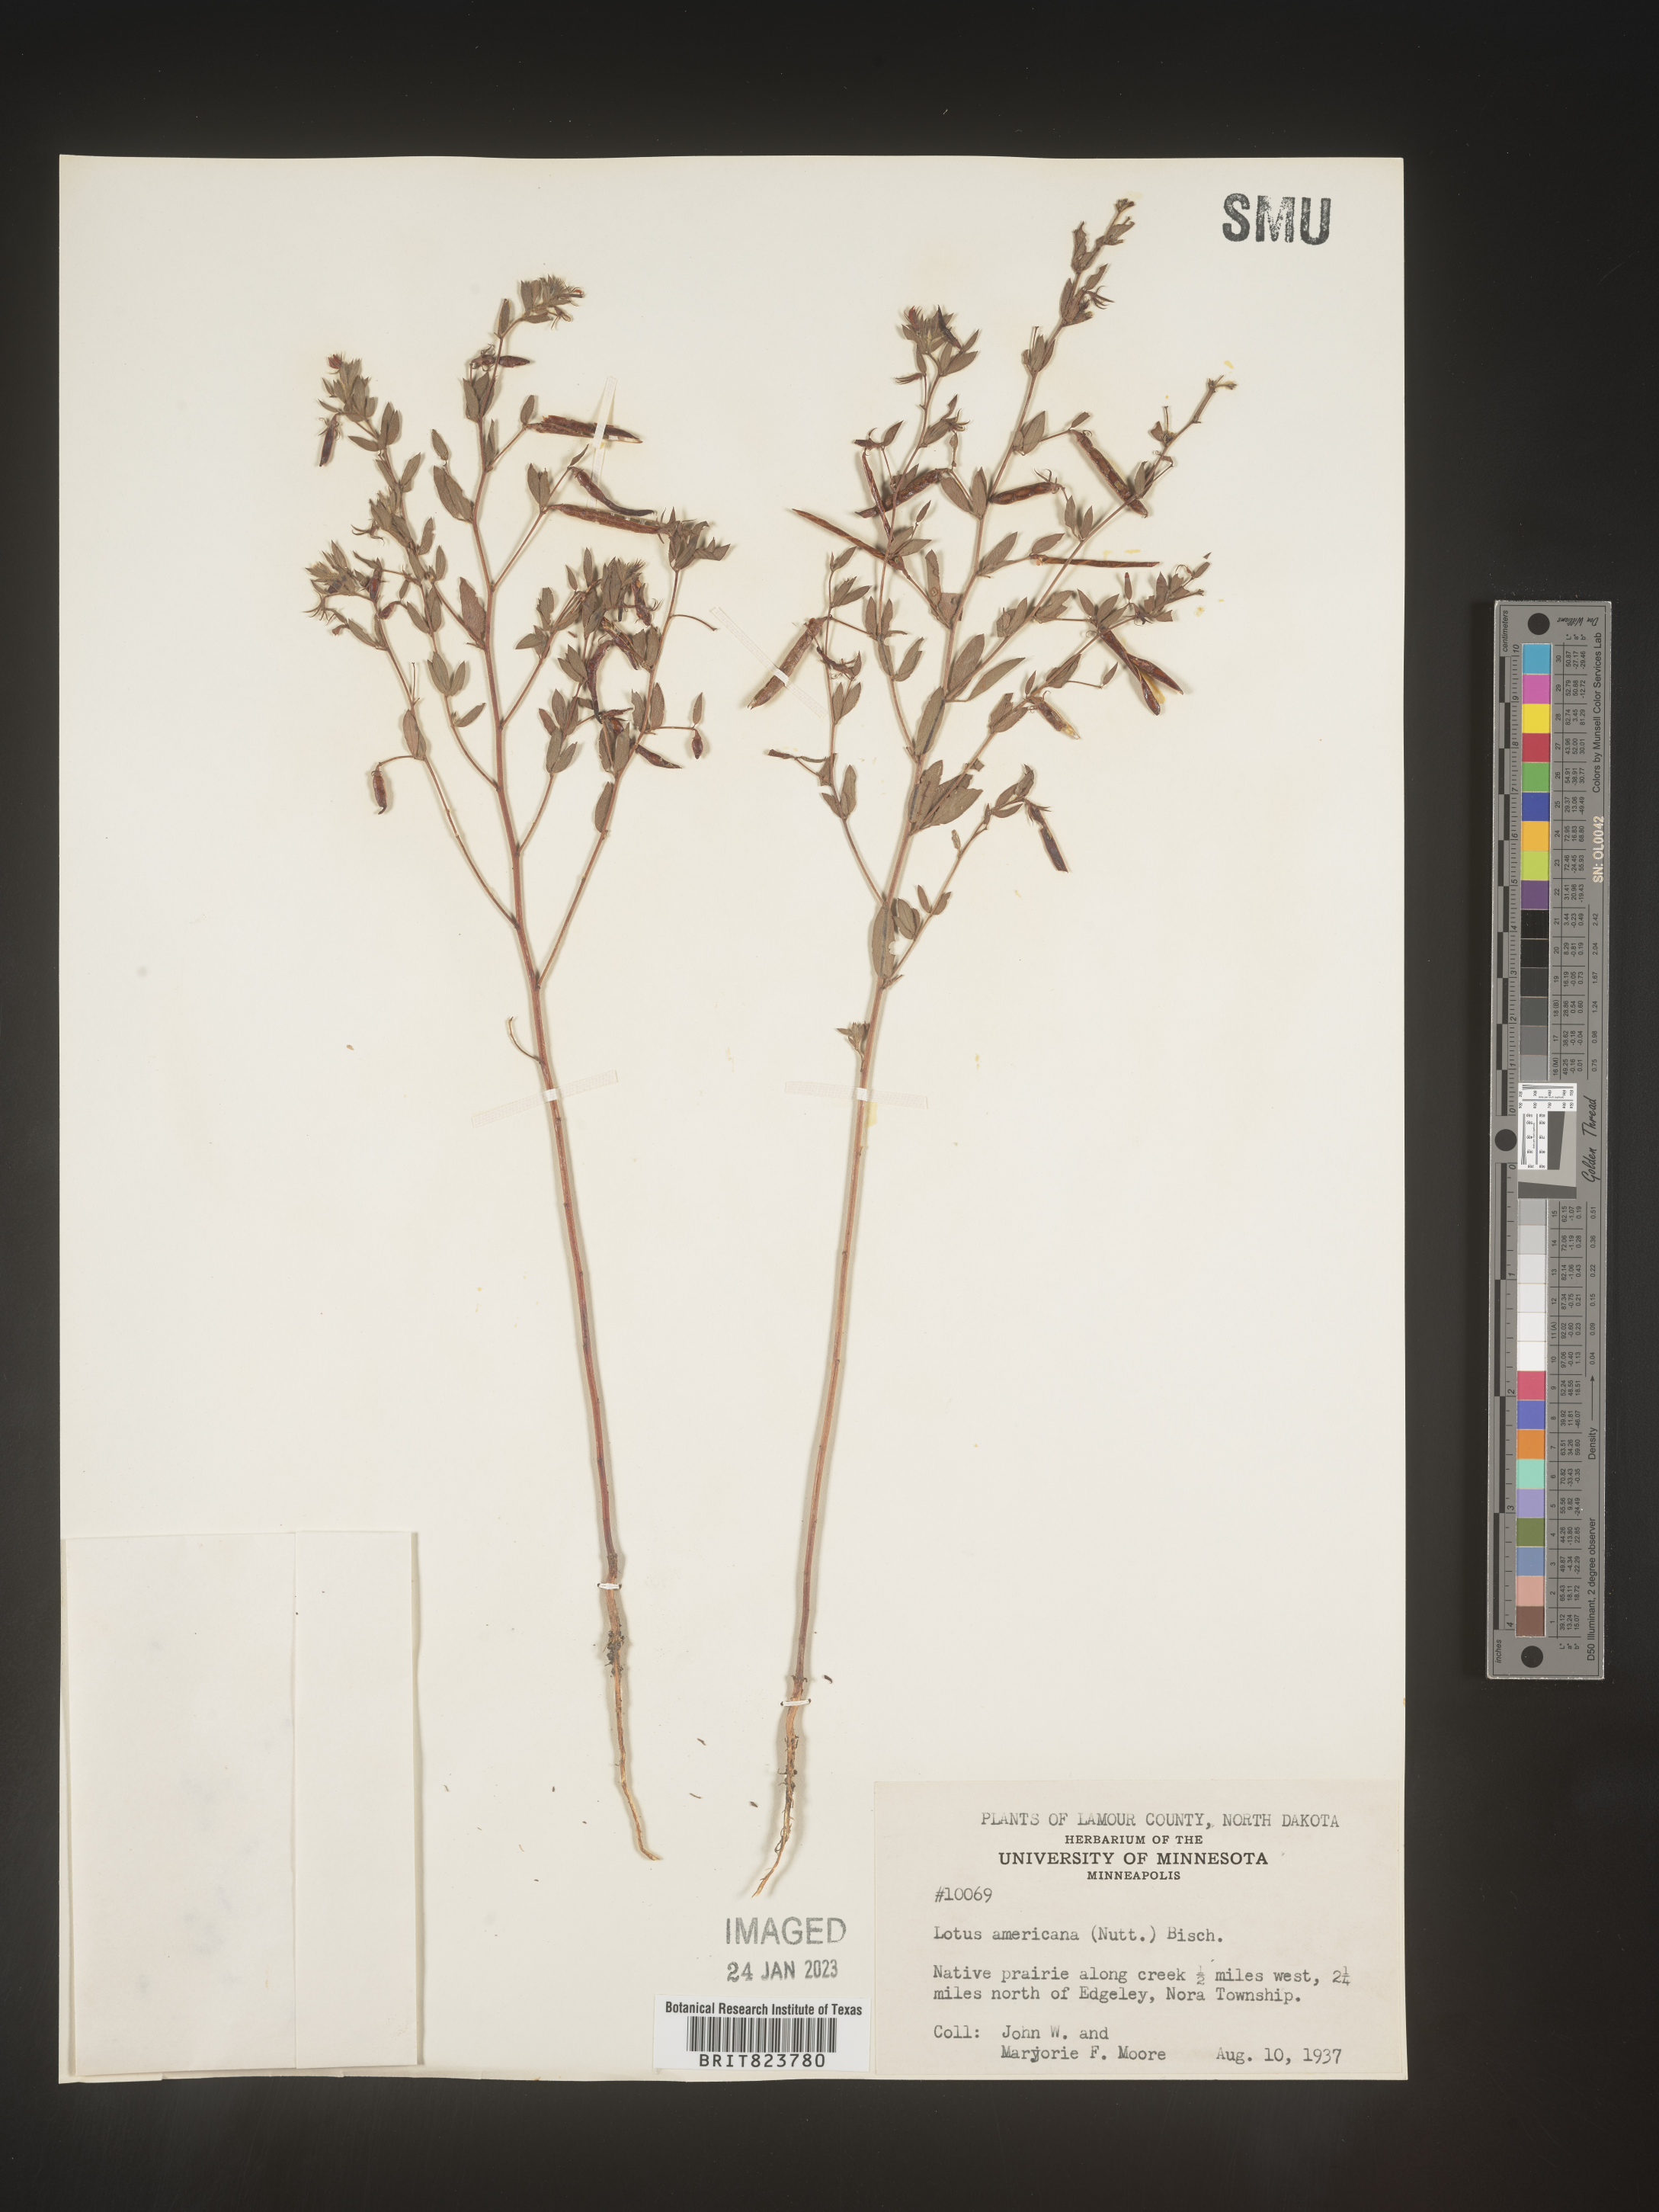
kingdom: Plantae
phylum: Tracheophyta
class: Magnoliopsida
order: Fabales
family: Fabaceae
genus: Acmispon
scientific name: Acmispon americanus
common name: American bird's-foot trefoil
